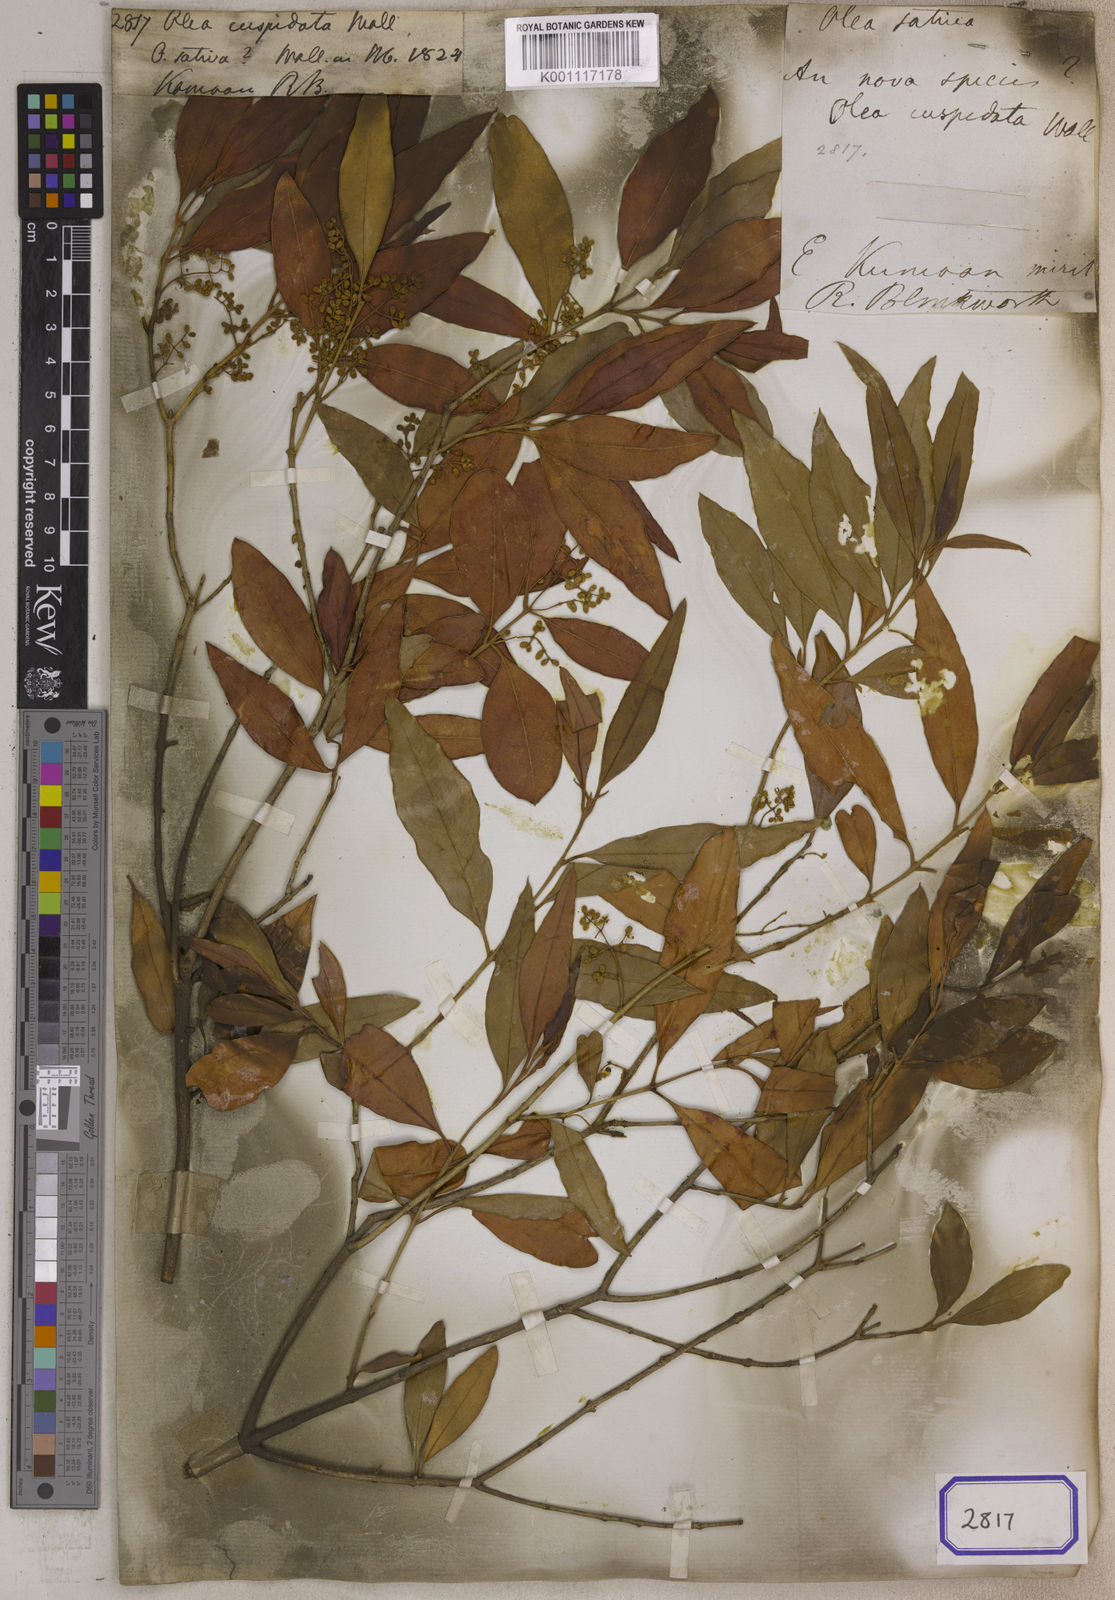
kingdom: Plantae
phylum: Tracheophyta
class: Magnoliopsida
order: Lamiales
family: Oleaceae
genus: Olea
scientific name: Olea
